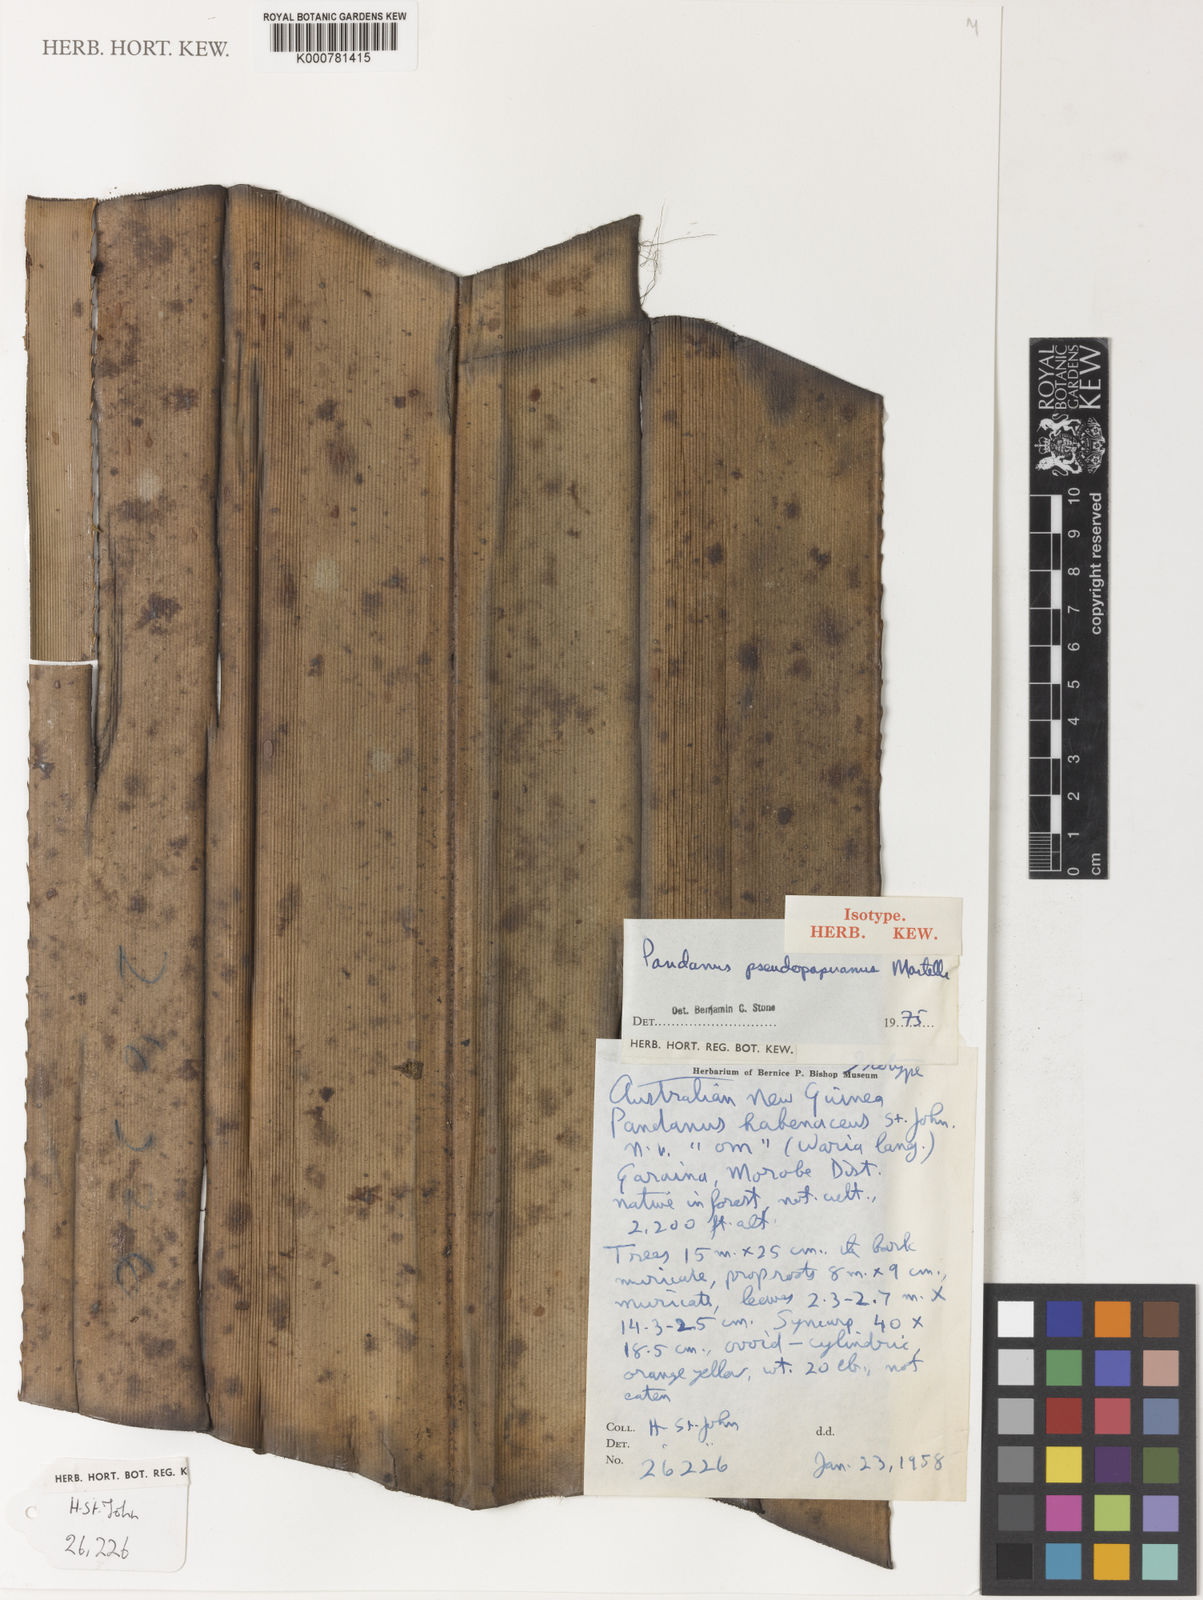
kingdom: Plantae
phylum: Tracheophyta
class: Liliopsida
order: Pandanales
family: Pandanaceae
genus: Pandanus
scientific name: Pandanus papuanus
